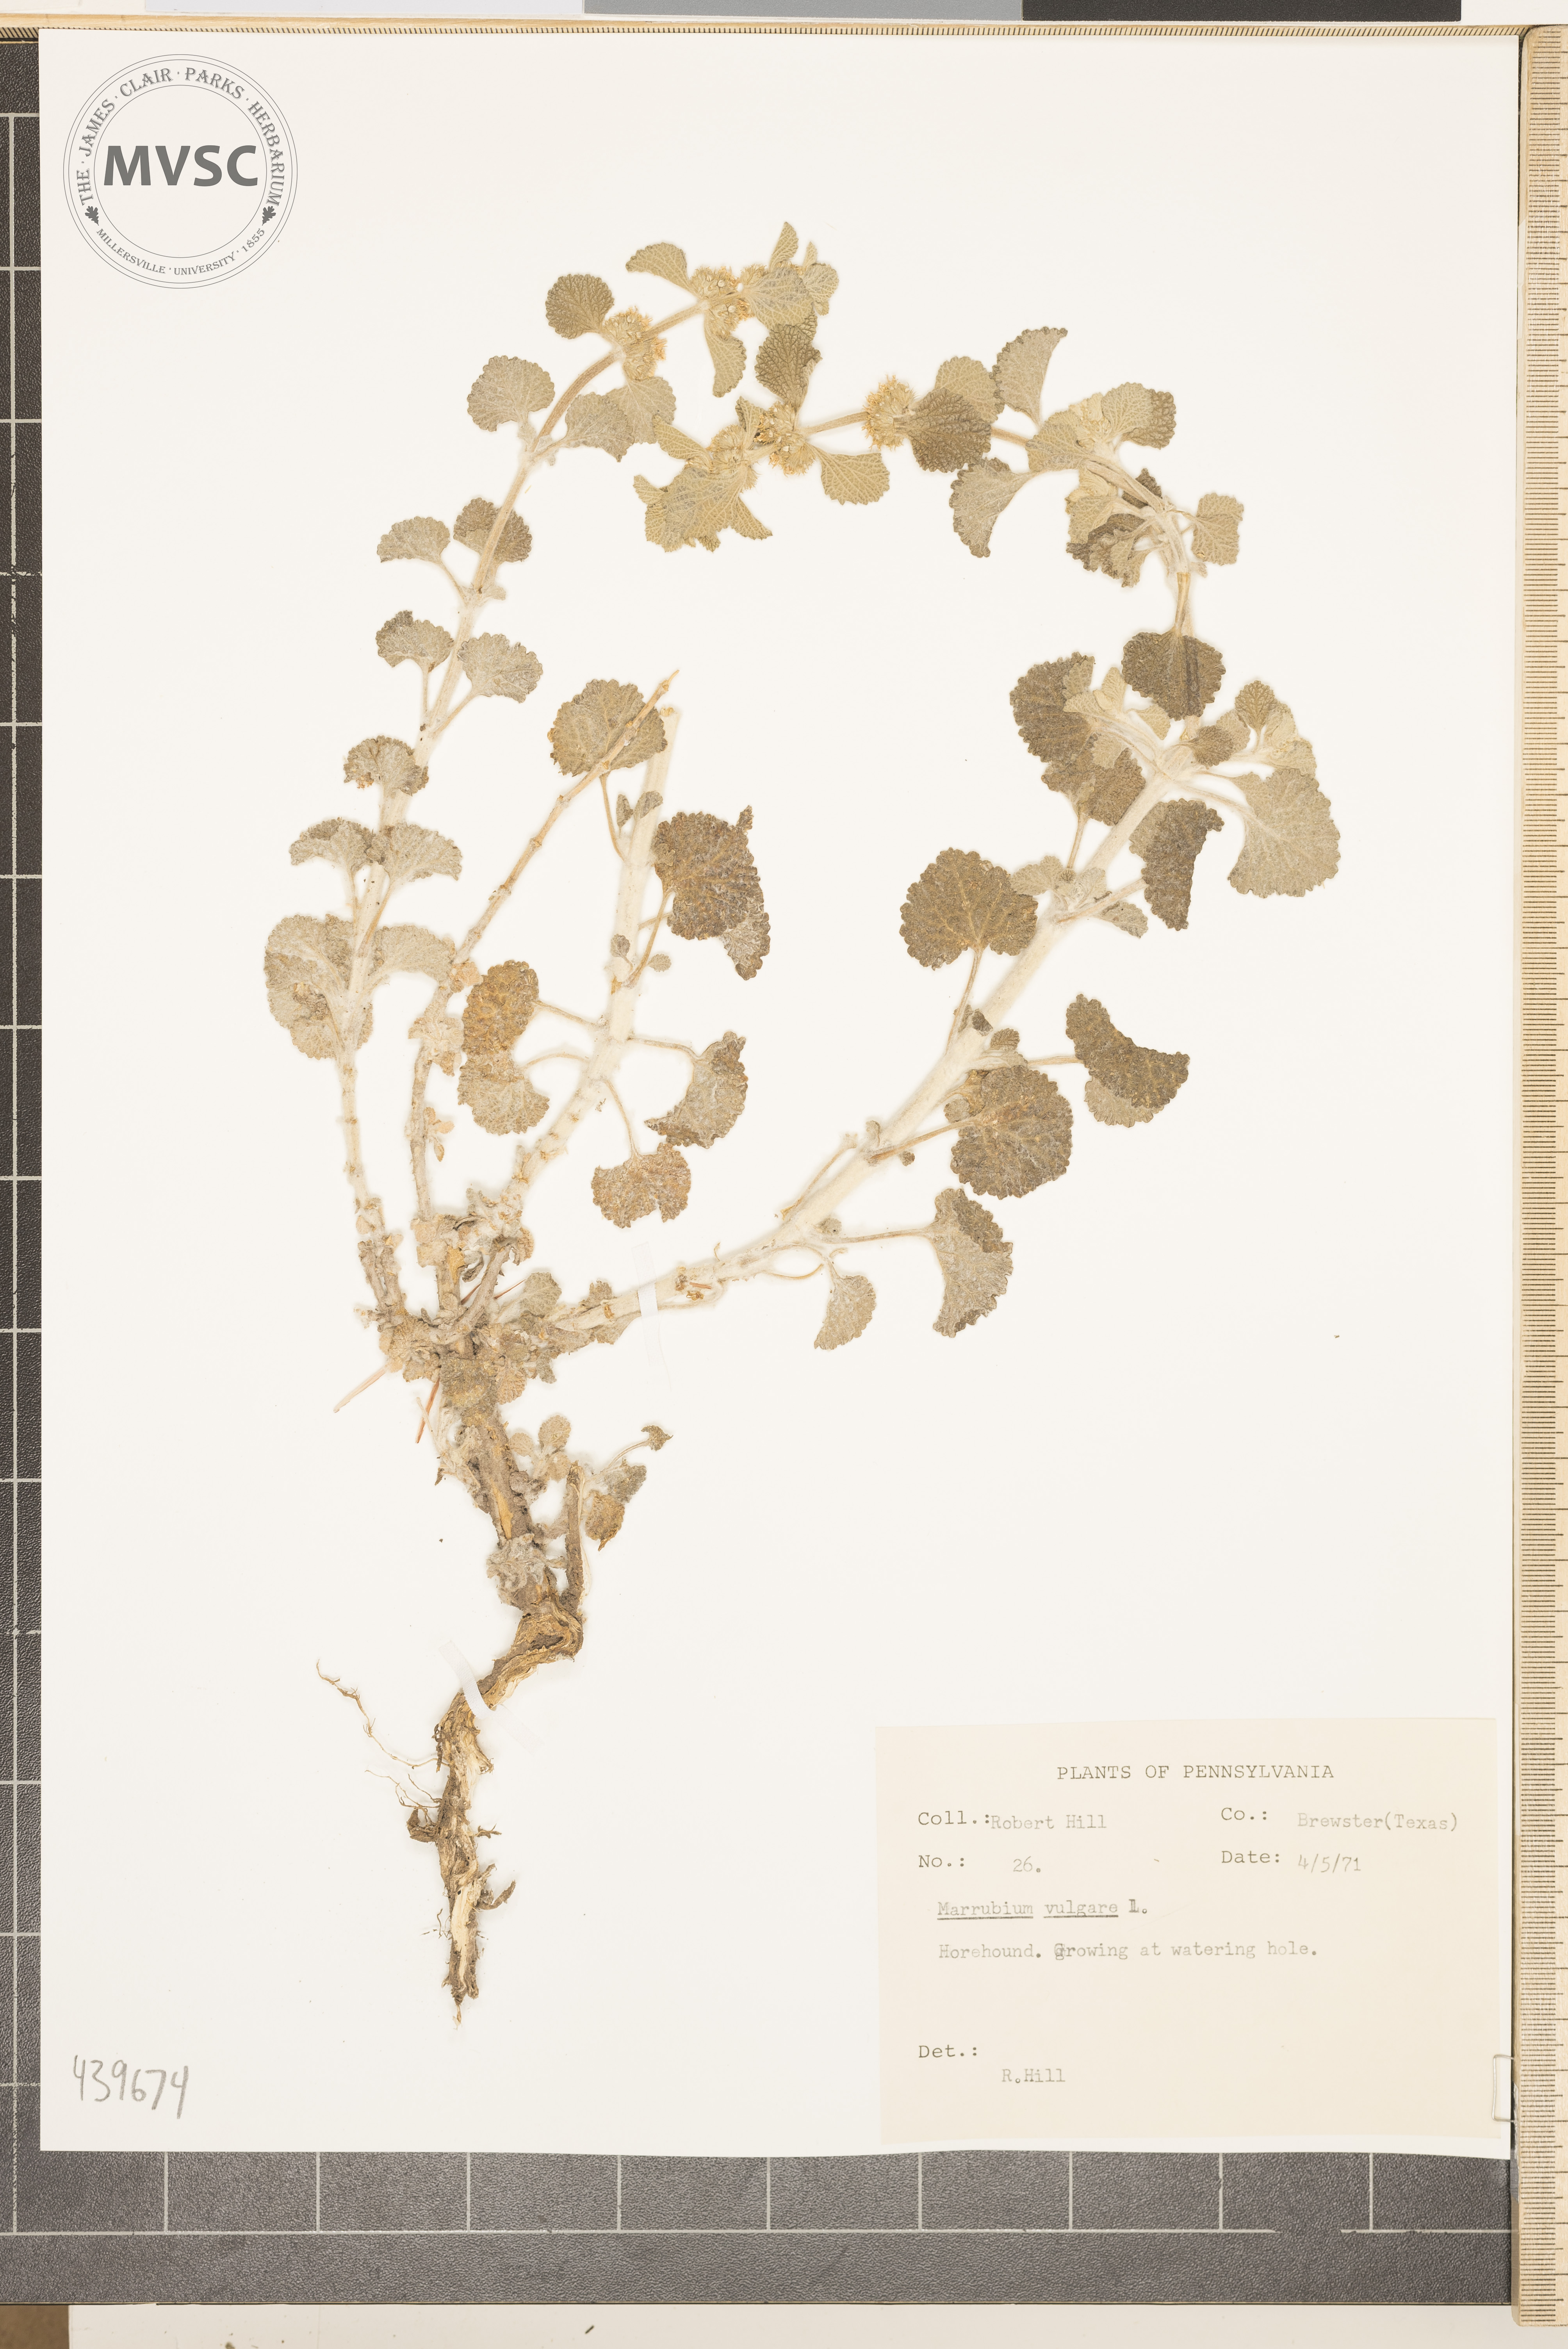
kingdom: Plantae
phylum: Tracheophyta
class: Magnoliopsida
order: Lamiales
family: Lamiaceae
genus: Marrubium
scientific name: Marrubium vulgare
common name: Horehound
